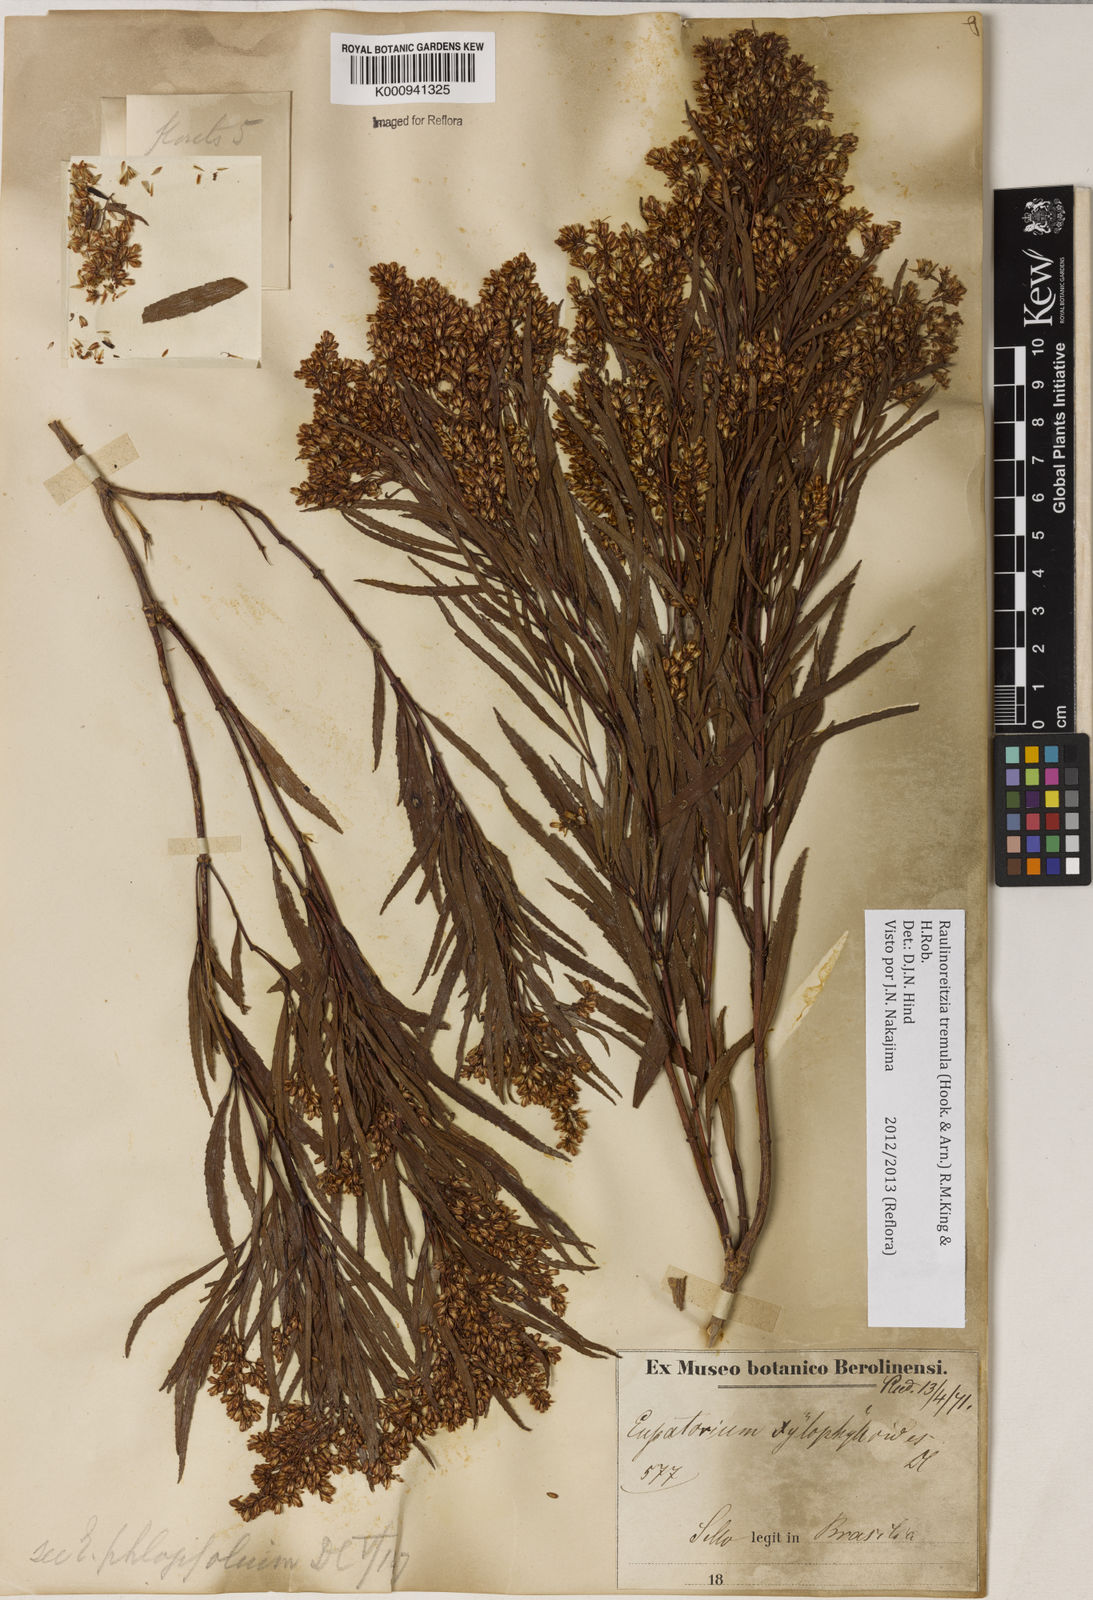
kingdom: Plantae
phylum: Tracheophyta
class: Magnoliopsida
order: Asterales
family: Asteraceae
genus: Raulinoreitzia
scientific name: Raulinoreitzia tremula
